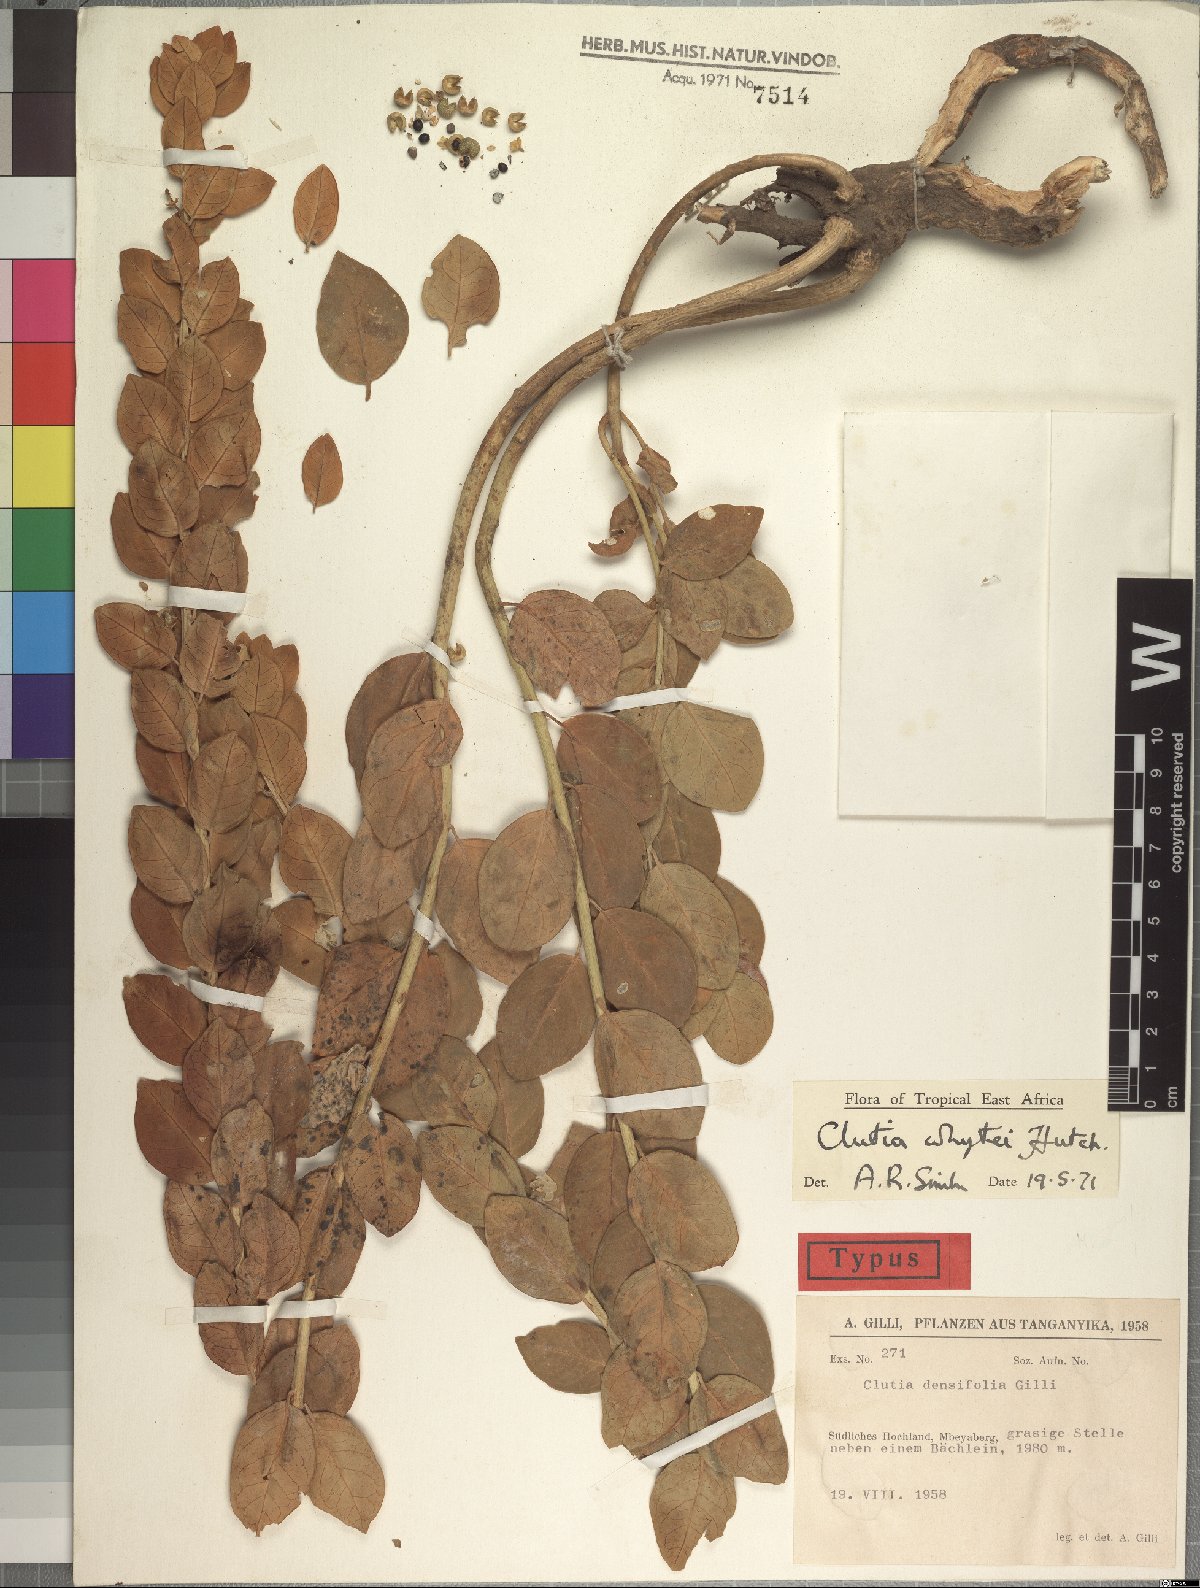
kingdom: Plantae
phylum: Tracheophyta
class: Magnoliopsida
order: Malpighiales
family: Peraceae
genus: Clutia
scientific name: Clutia whytei
